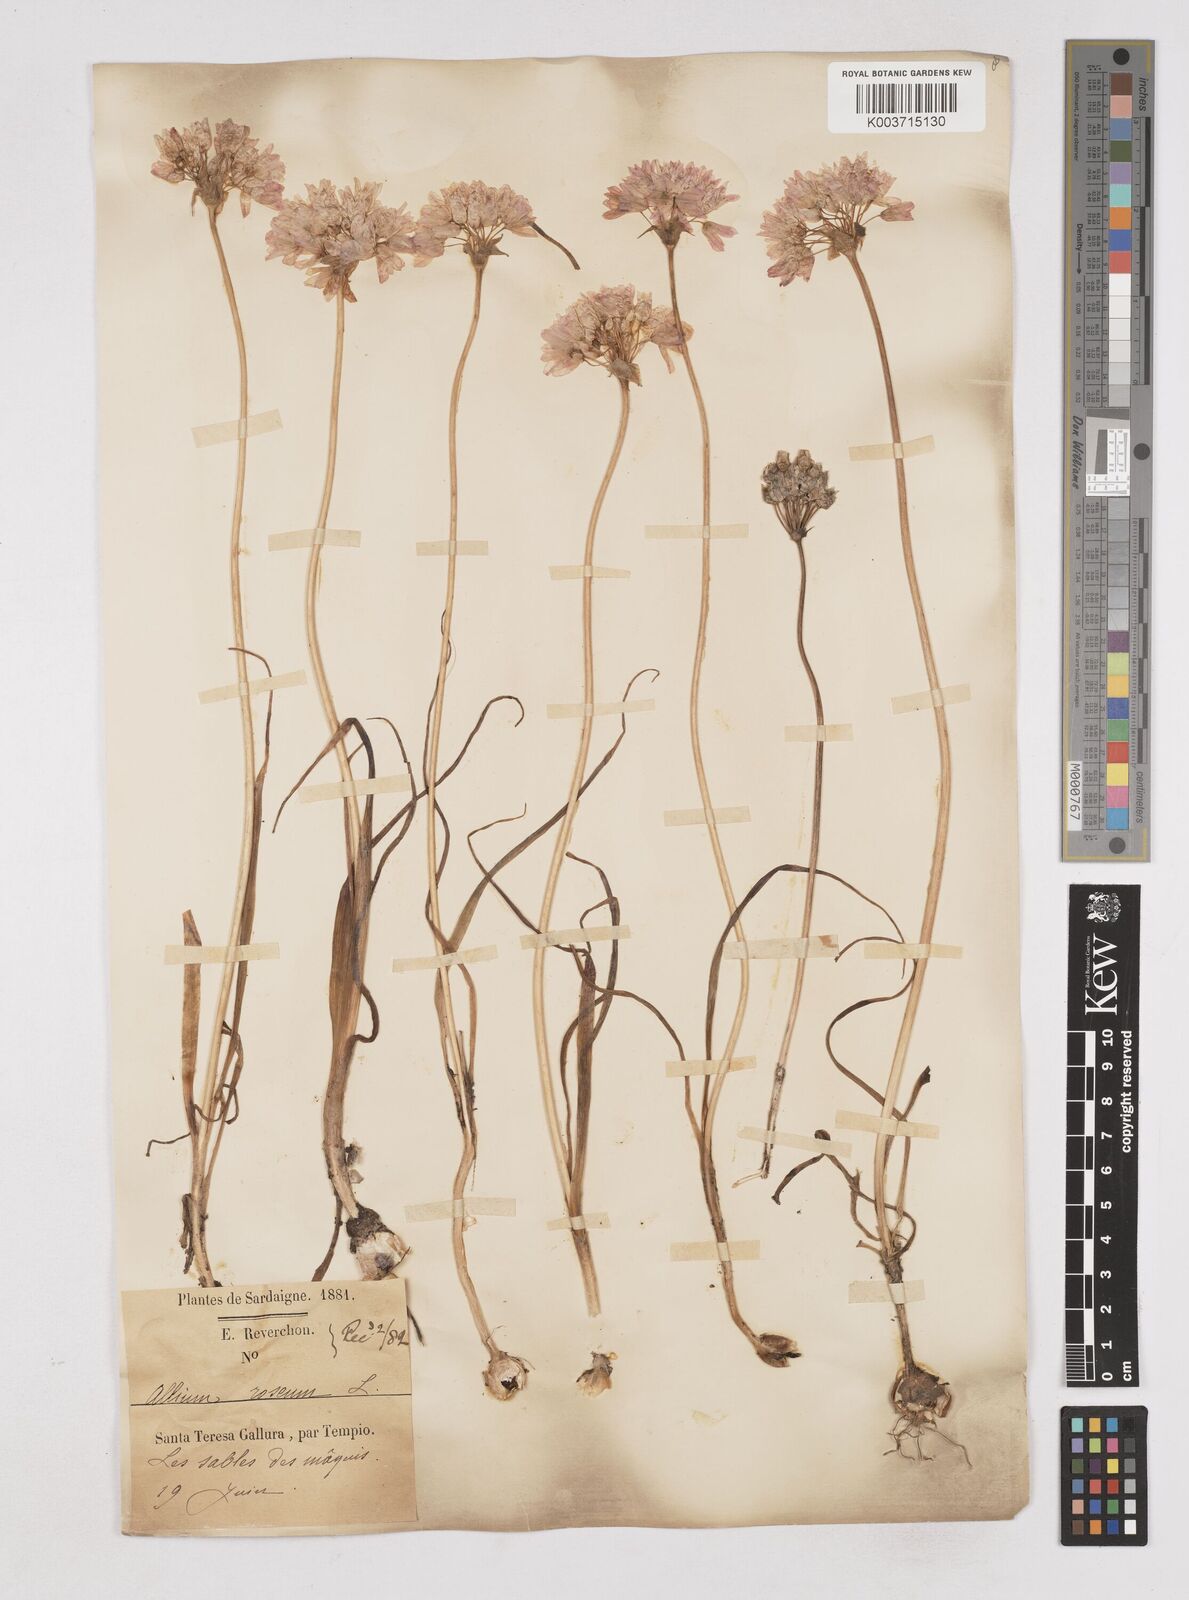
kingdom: Plantae
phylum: Tracheophyta
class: Liliopsida
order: Asparagales
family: Amaryllidaceae
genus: Allium
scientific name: Allium roseum
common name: Rosy garlic
